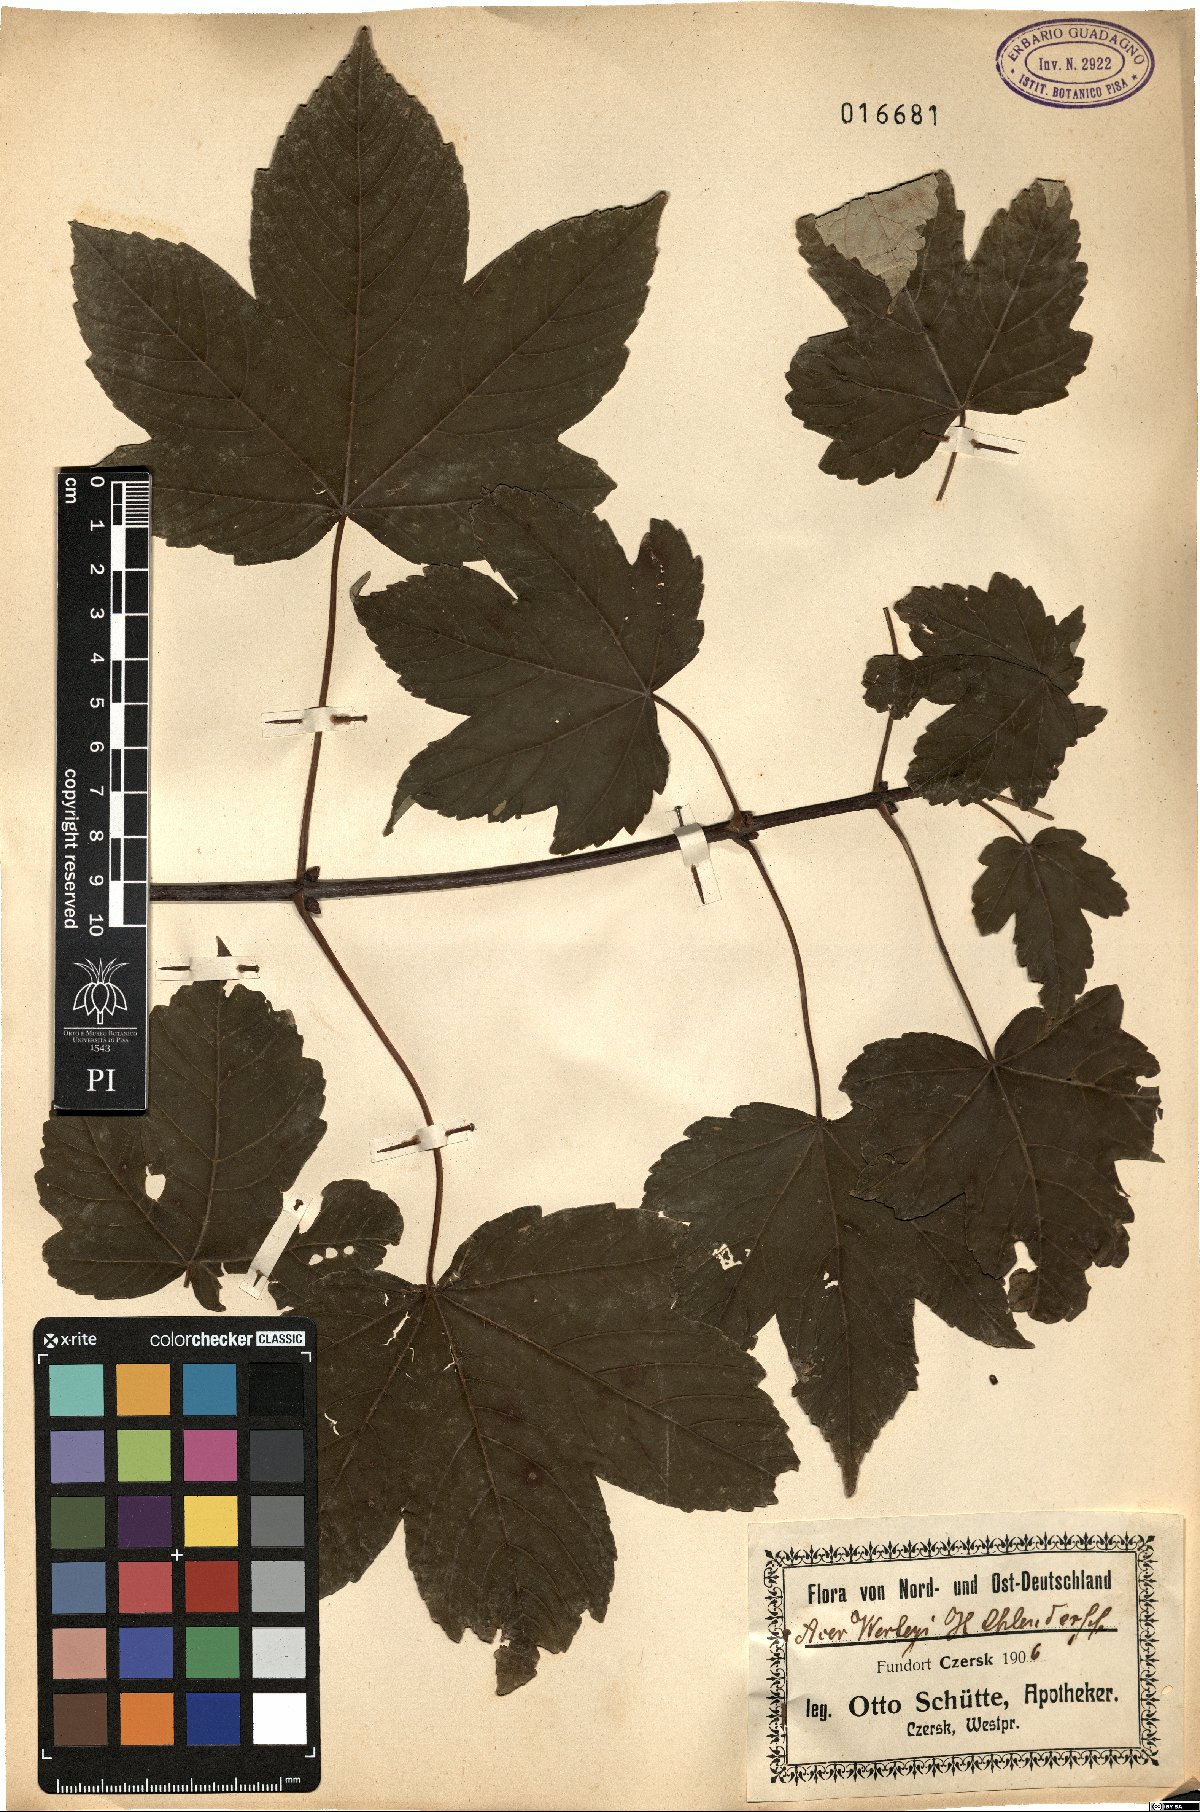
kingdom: Plantae
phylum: Tracheophyta
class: Magnoliopsida
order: Sapindales
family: Sapindaceae
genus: Acer
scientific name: Acer pseudoplatanus
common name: Sycamore
